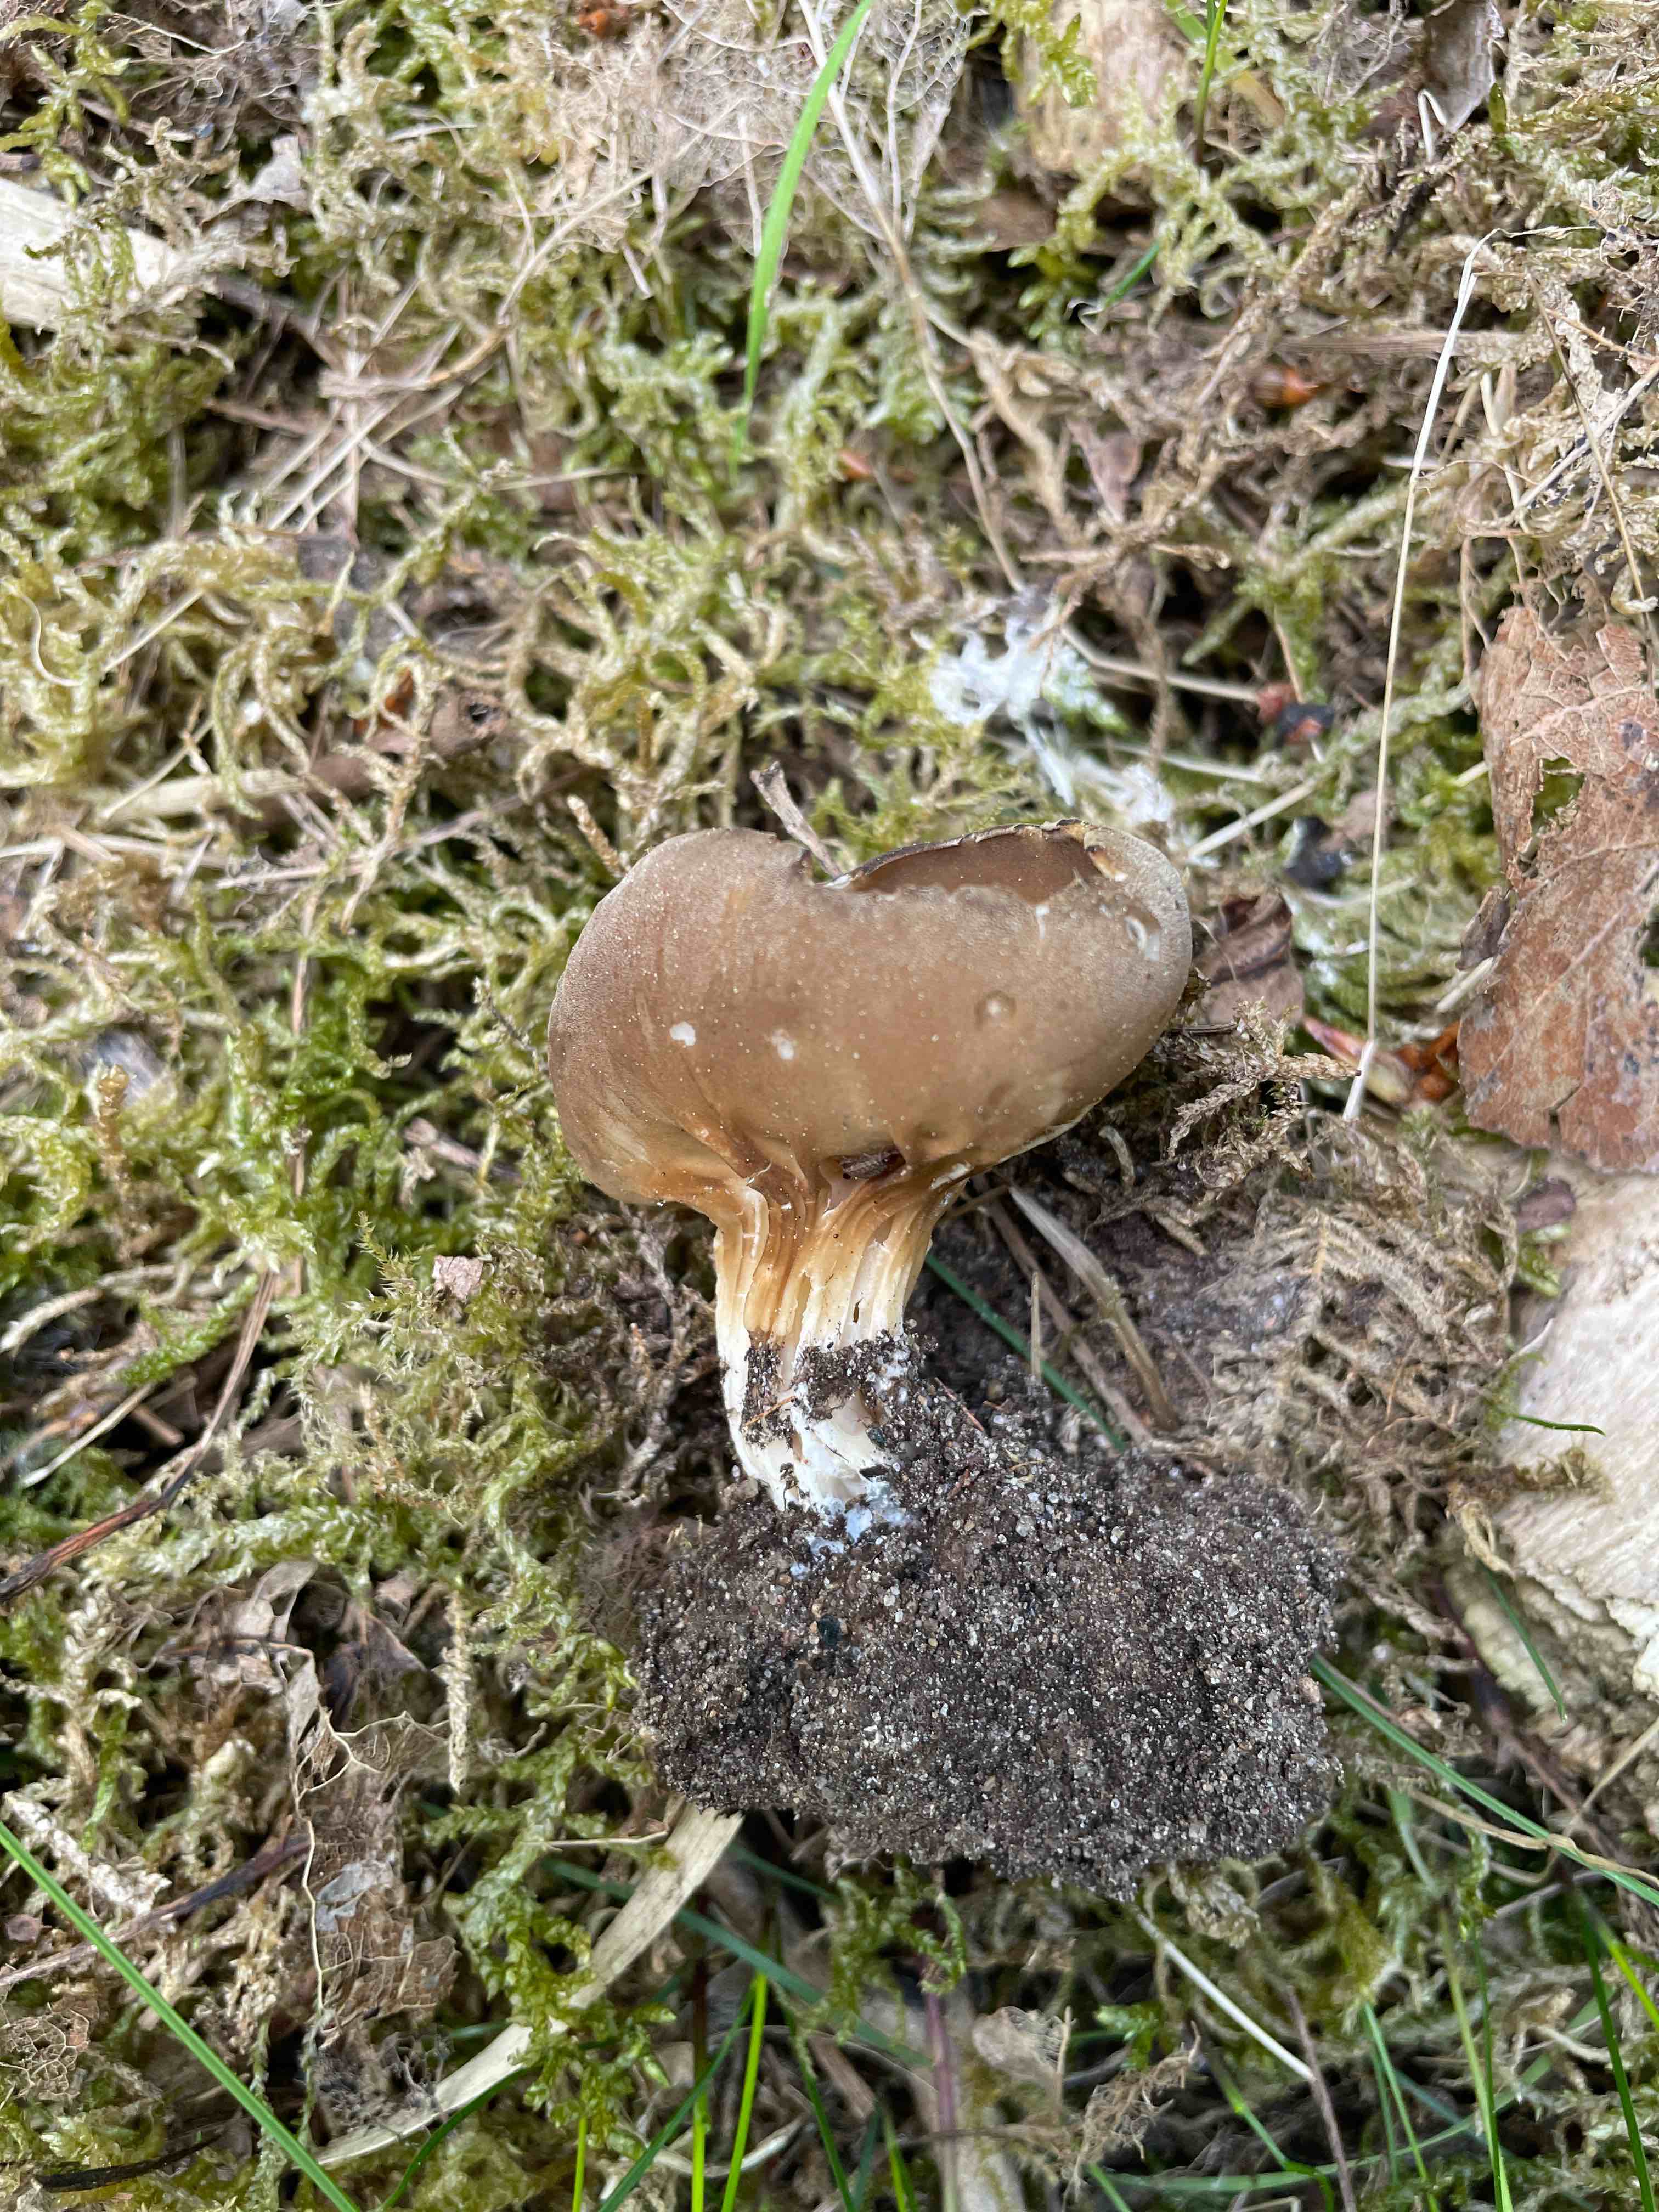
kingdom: Fungi
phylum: Ascomycota
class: Pezizomycetes
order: Pezizales
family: Helvellaceae
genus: Helvella
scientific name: Helvella acetabulum
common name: pokal-foldhat
